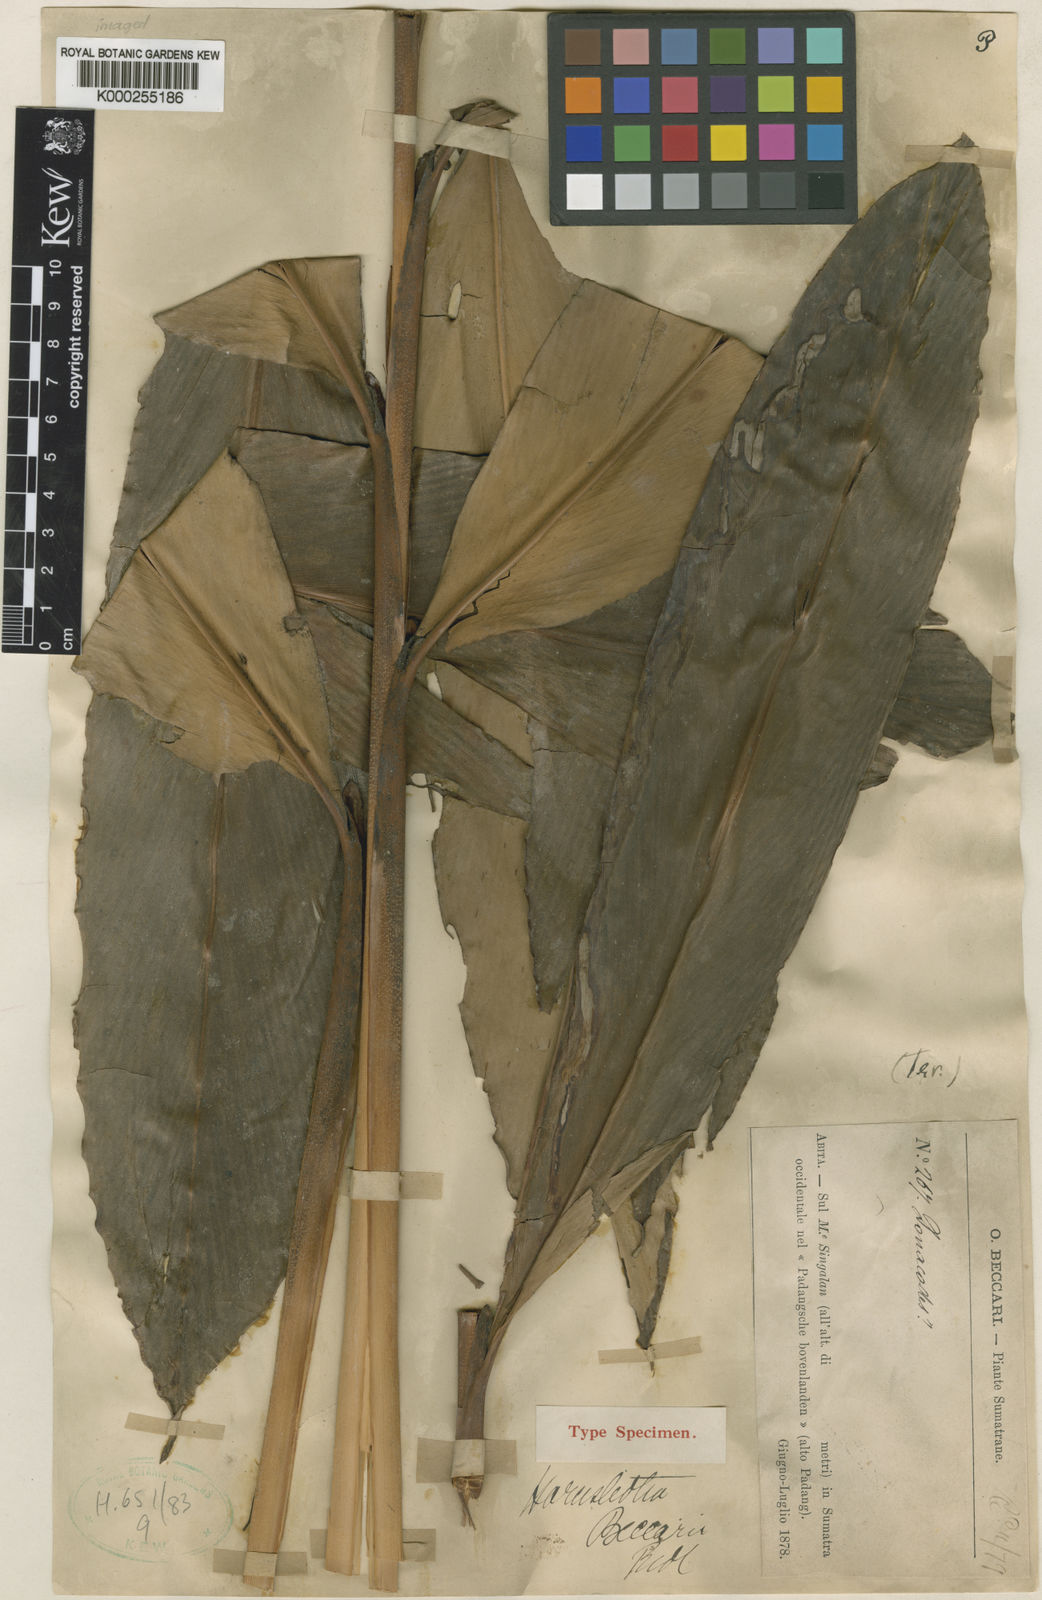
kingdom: Plantae
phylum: Tracheophyta
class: Liliopsida
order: Zingiberales
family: Zingiberaceae
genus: Amomum
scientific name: Amomum vestitum
